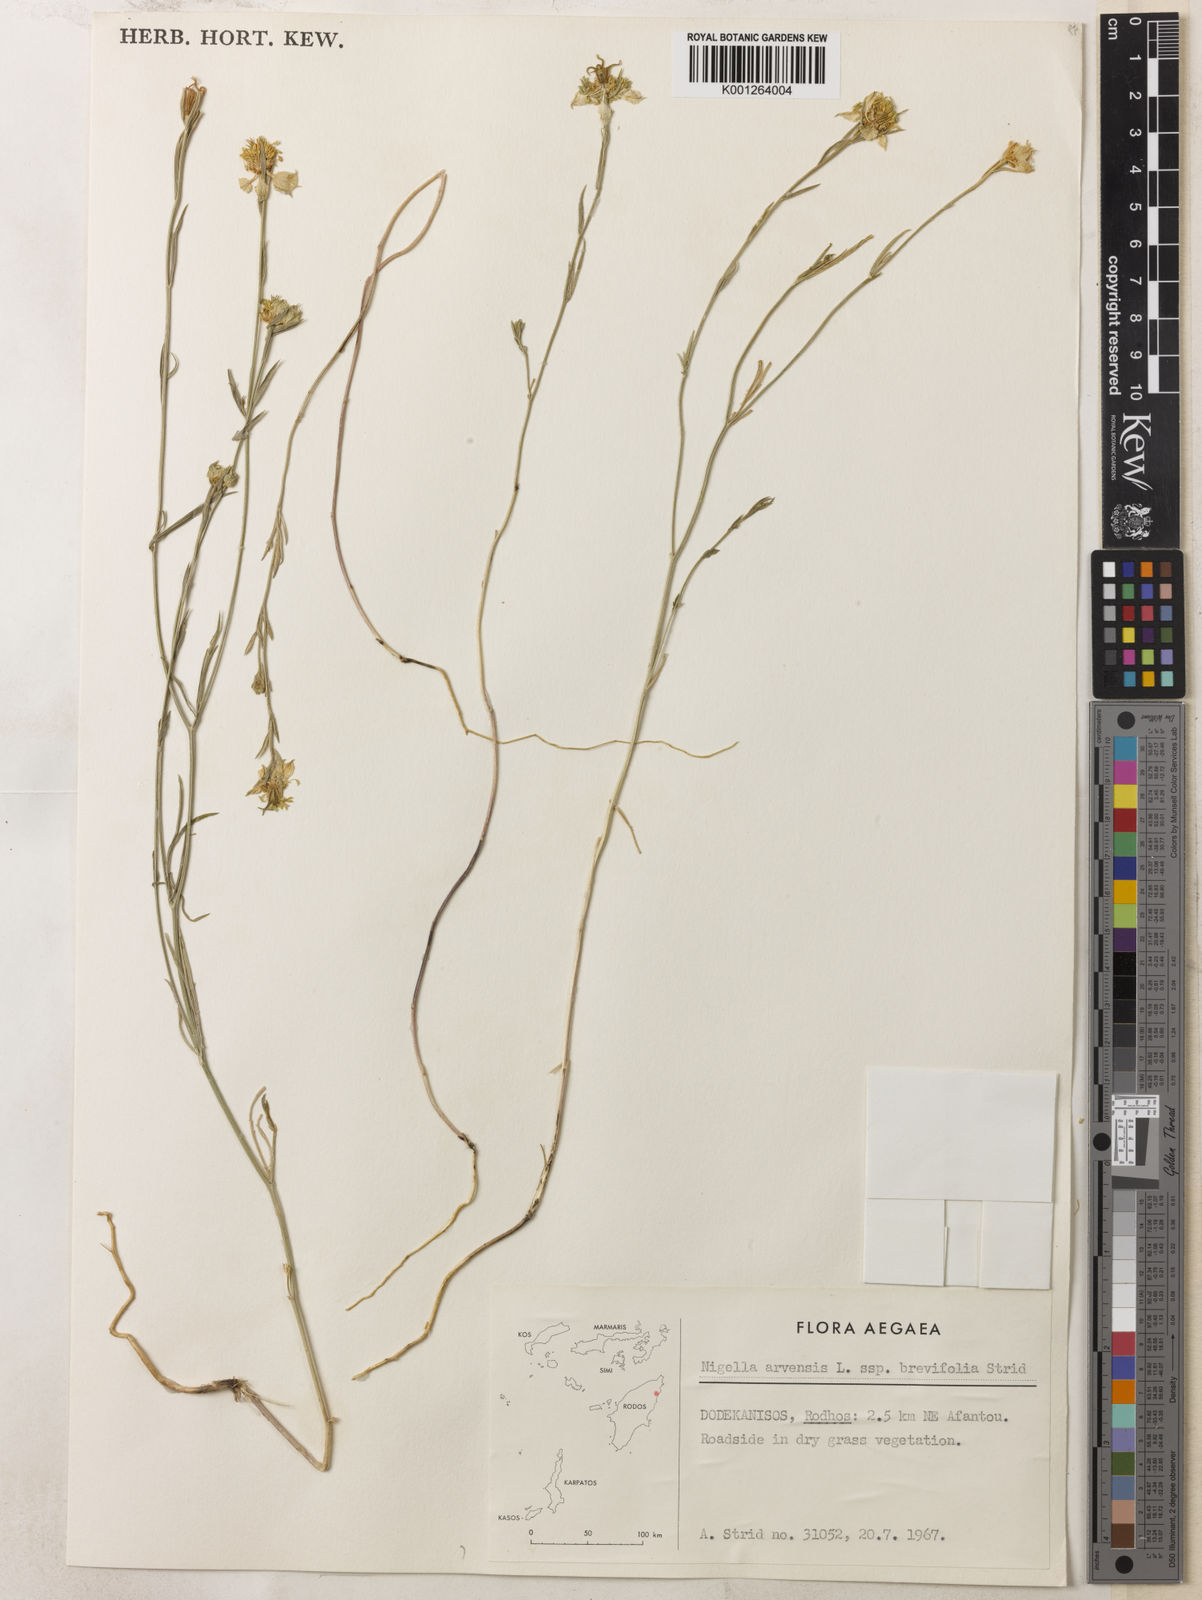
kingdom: Plantae
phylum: Tracheophyta
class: Magnoliopsida
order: Ranunculales
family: Ranunculaceae
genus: Nigella
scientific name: Nigella arvensis
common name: Wild fennel-flower
